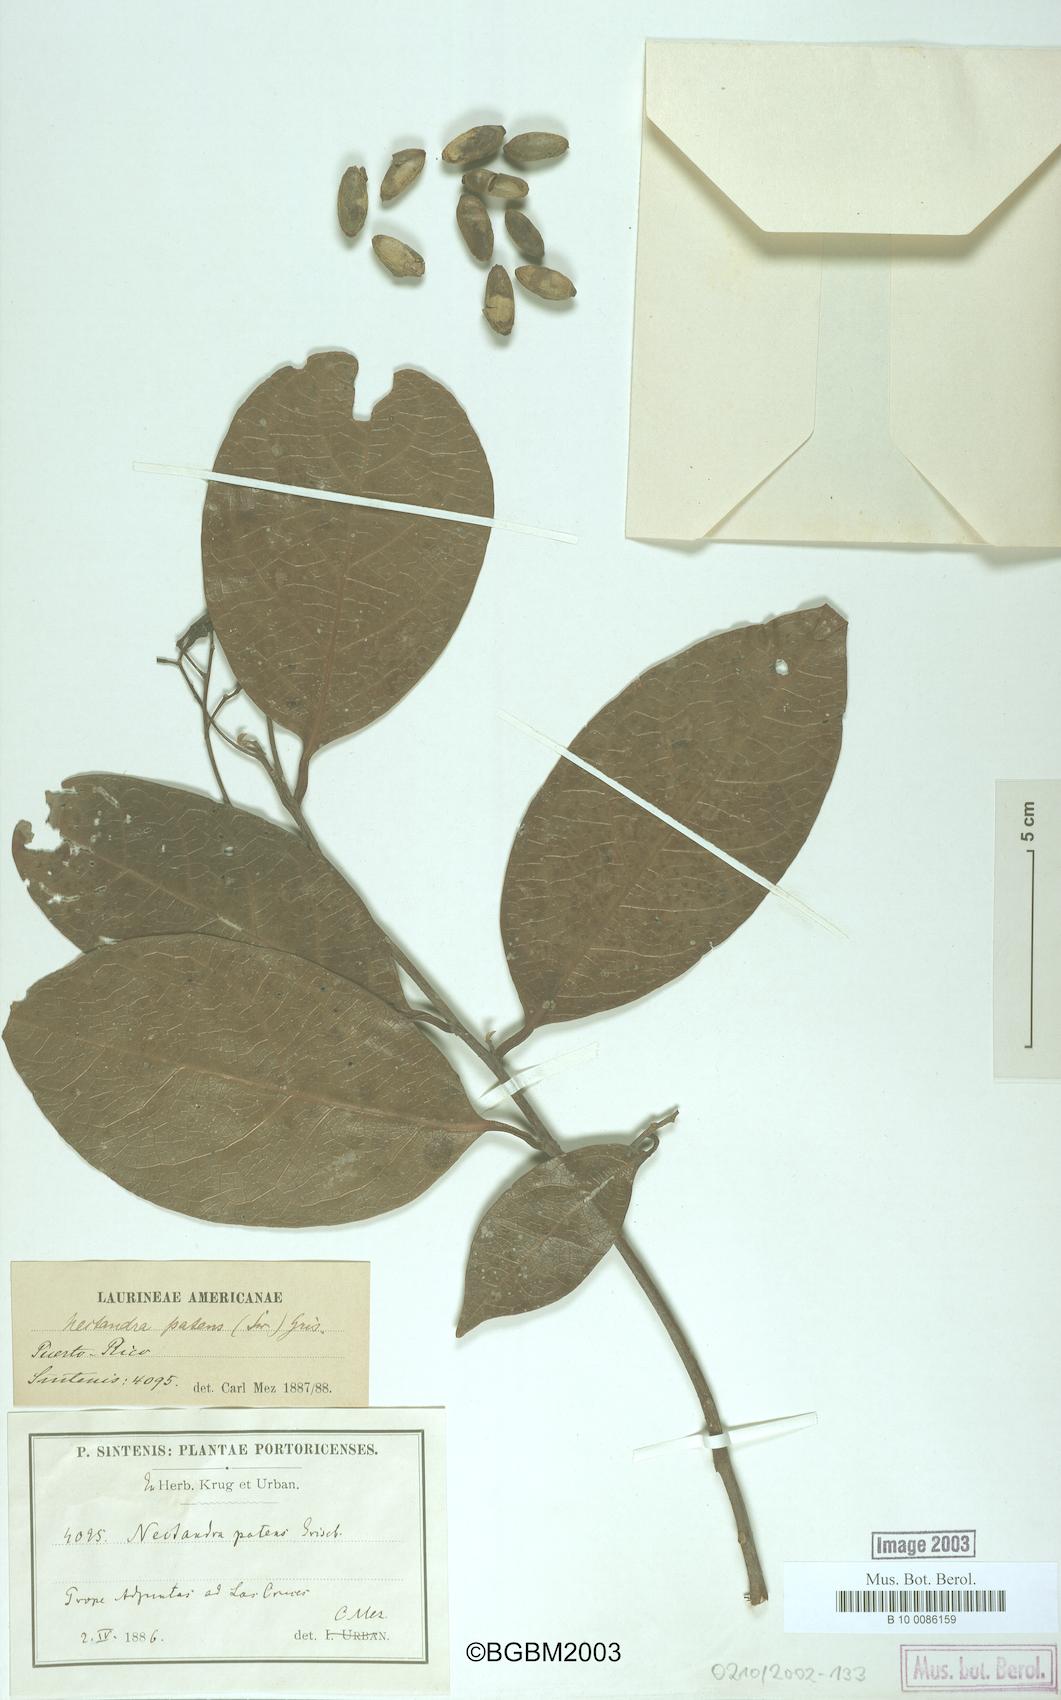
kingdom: Plantae
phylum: Tracheophyta
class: Magnoliopsida
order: Laurales
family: Lauraceae
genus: Damburneya
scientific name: Damburneya patens
